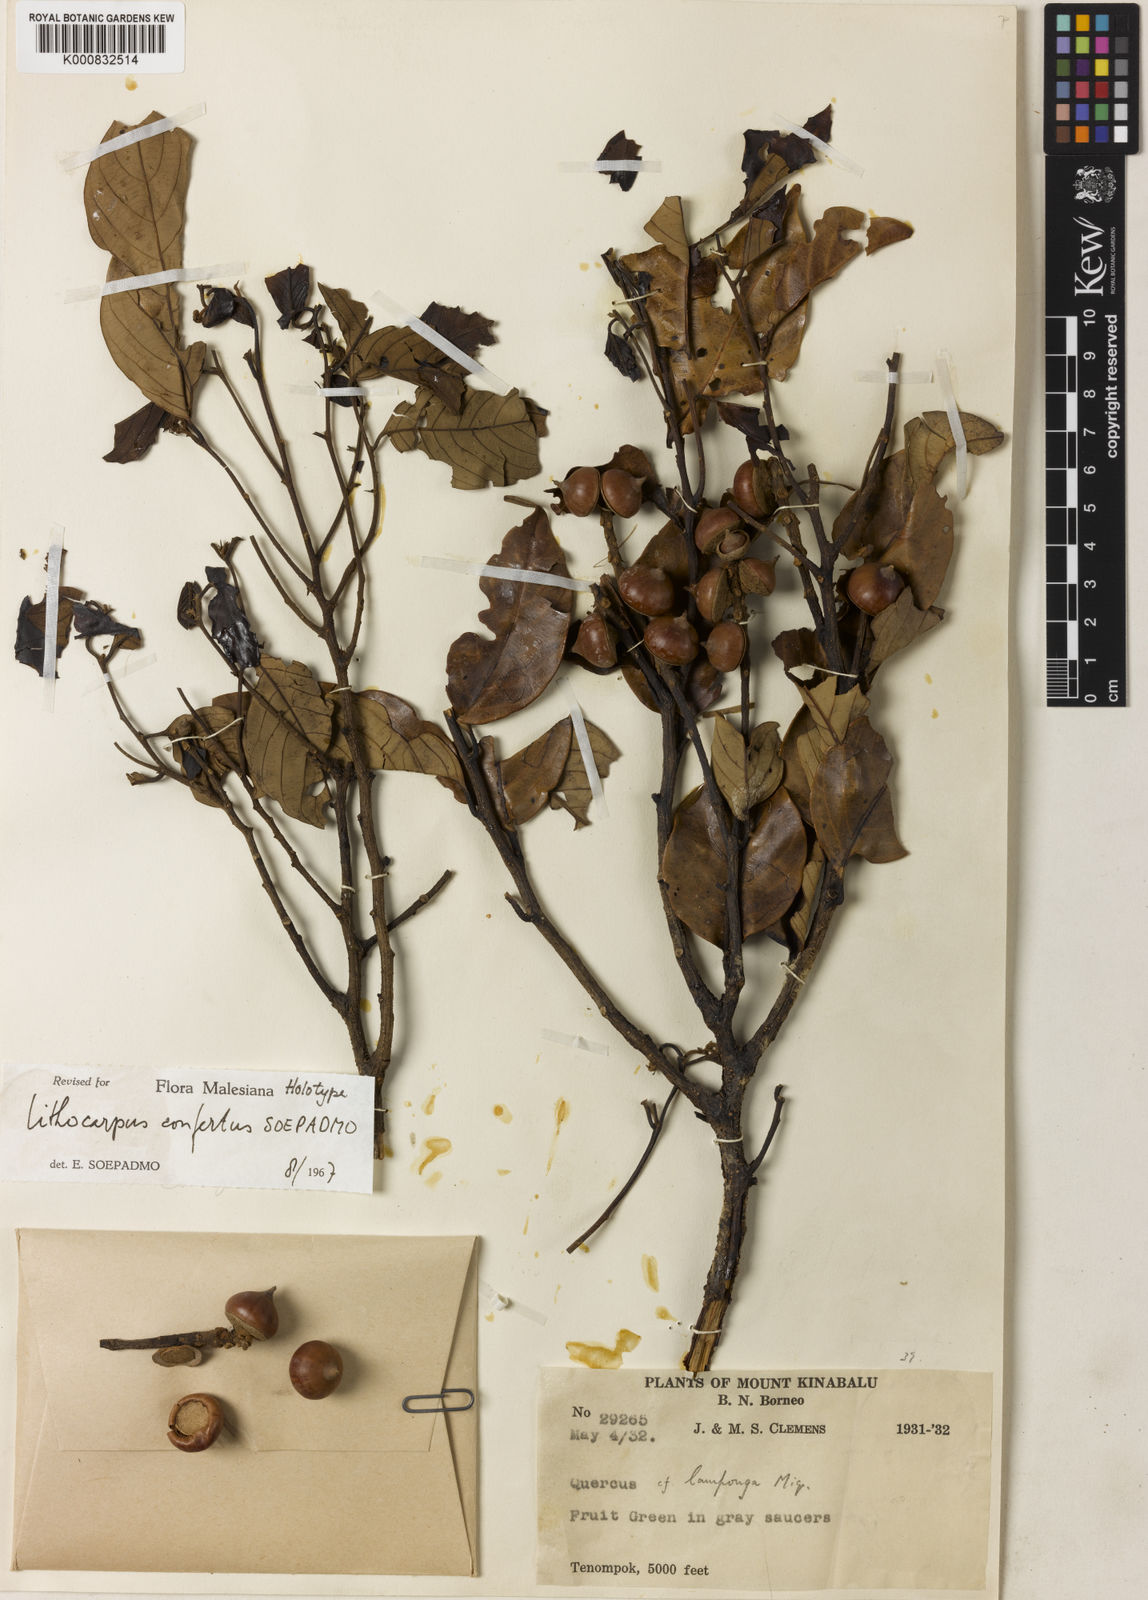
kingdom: Plantae
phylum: Tracheophyta
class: Magnoliopsida
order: Fagales
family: Fagaceae
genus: Lithocarpus
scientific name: Lithocarpus confertus
